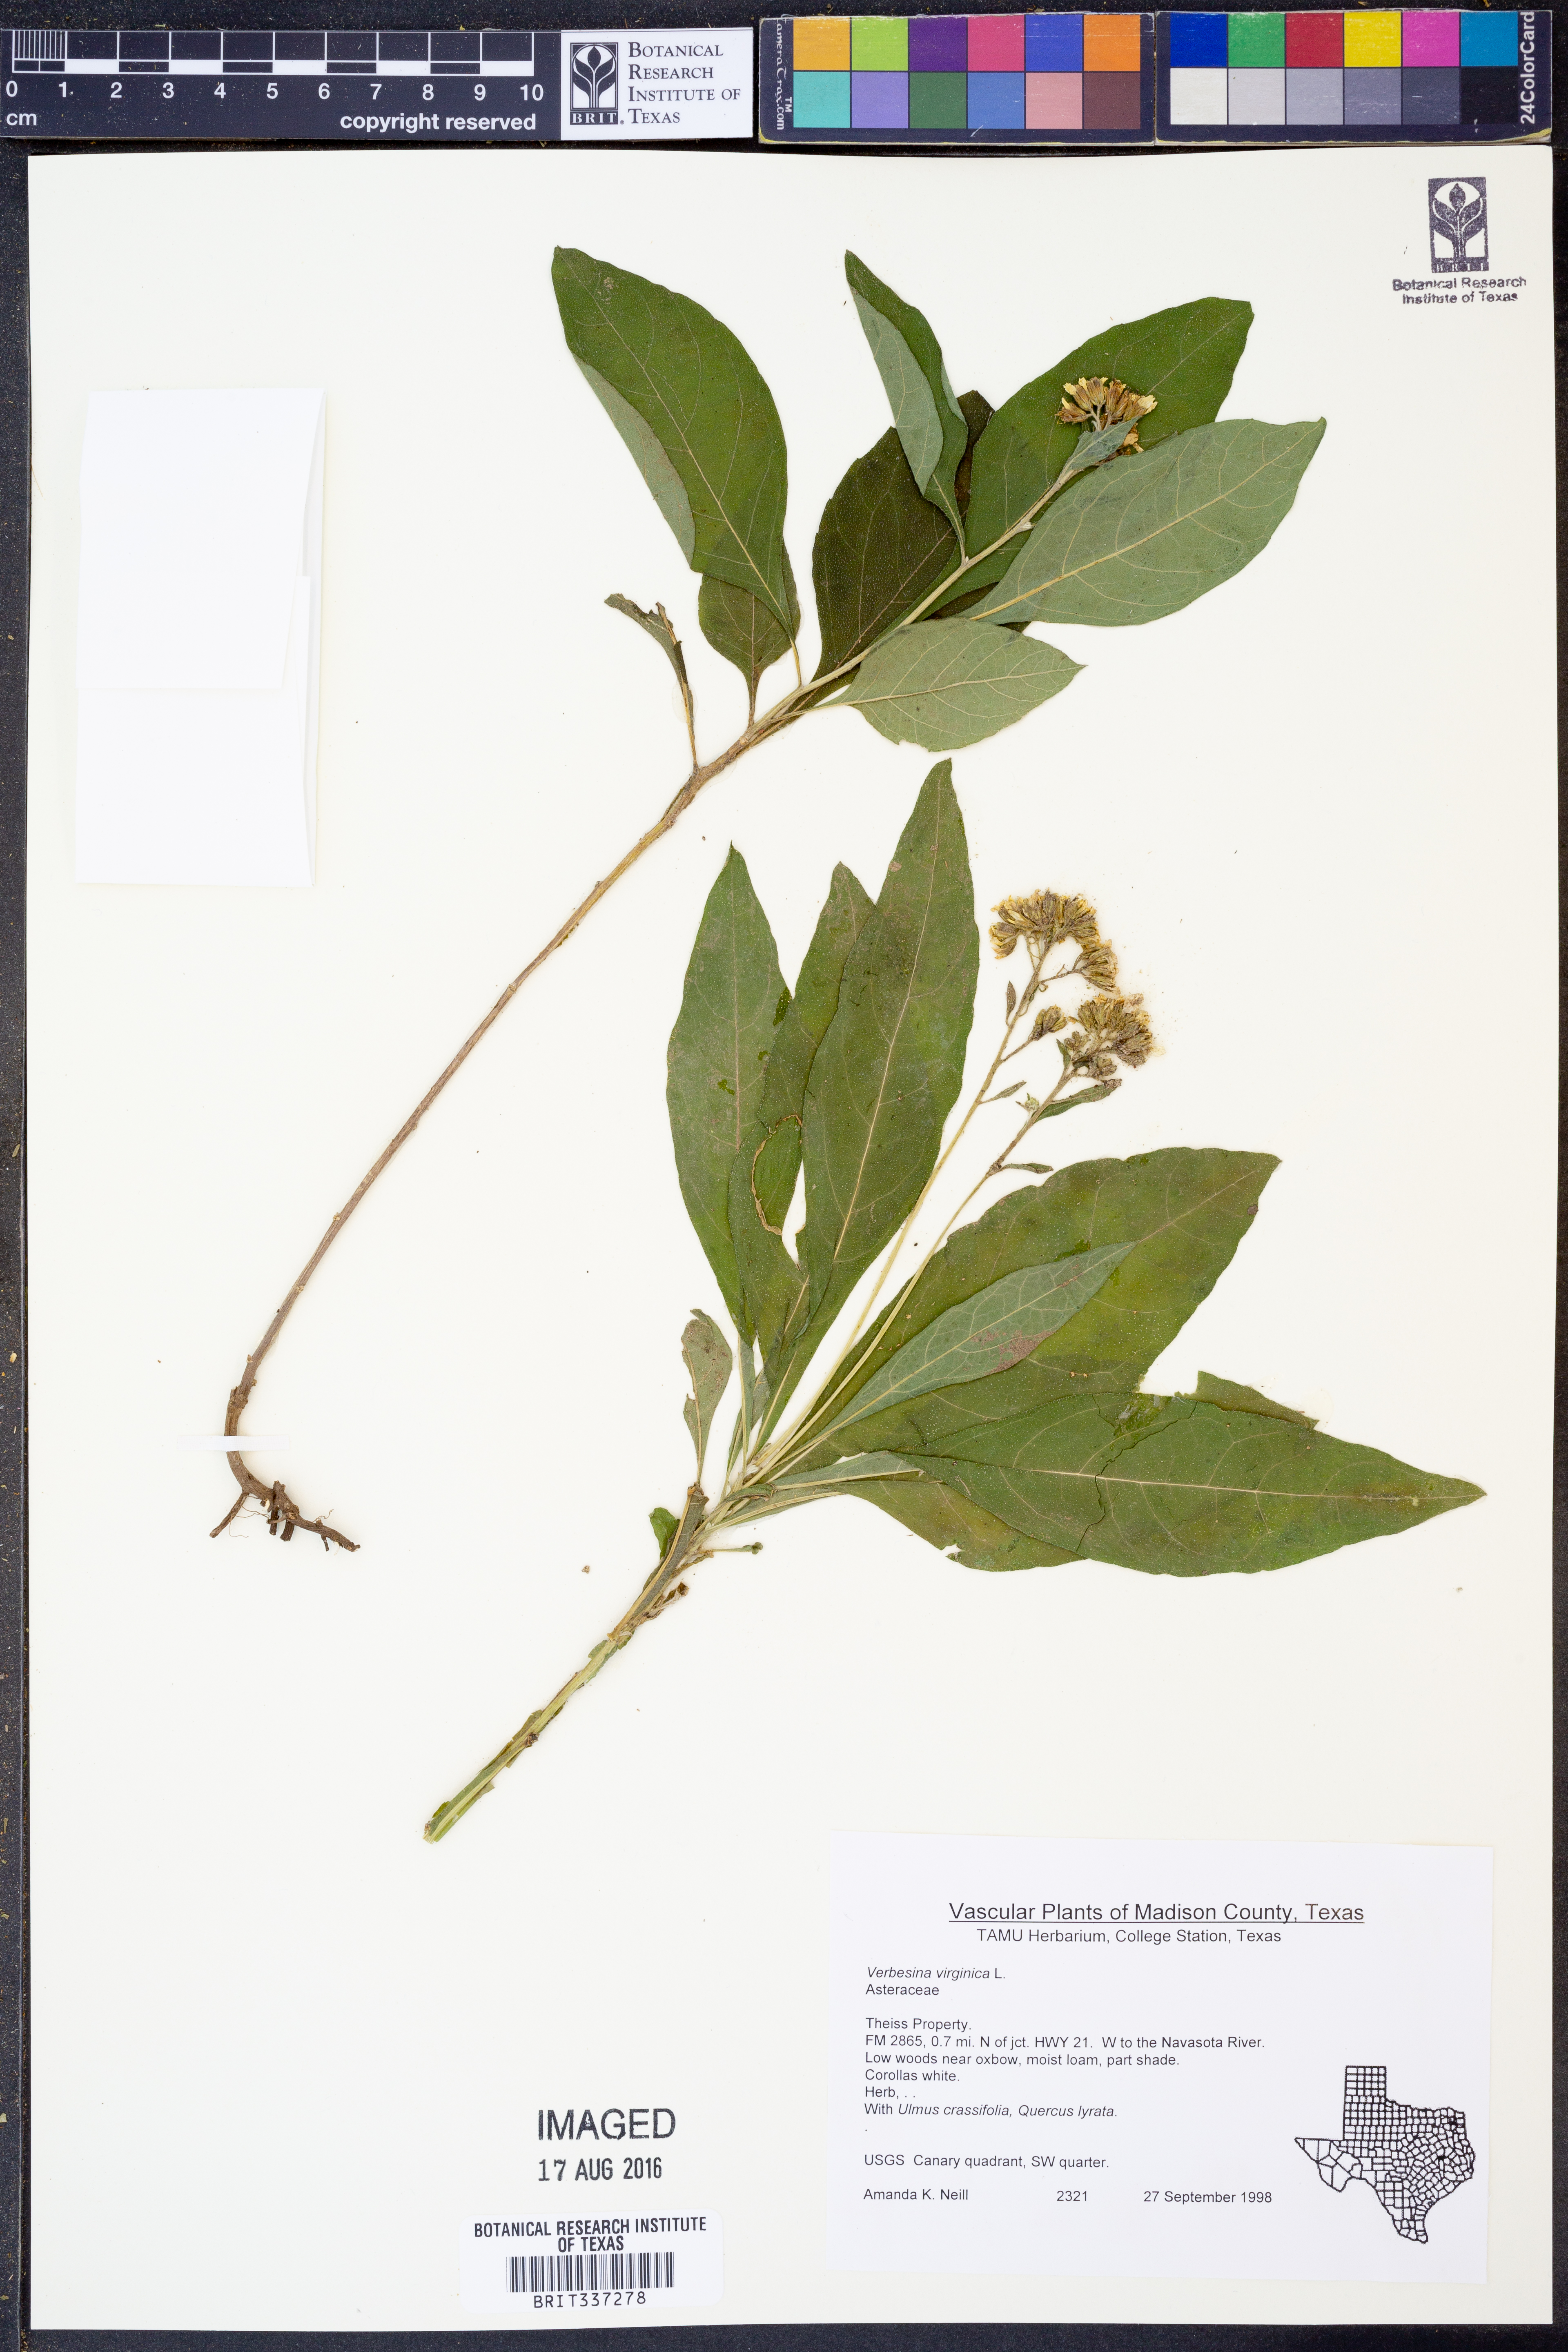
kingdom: Plantae
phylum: Tracheophyta
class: Magnoliopsida
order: Asterales
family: Asteraceae
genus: Verbesina
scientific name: Verbesina virginica
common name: Frostweed
